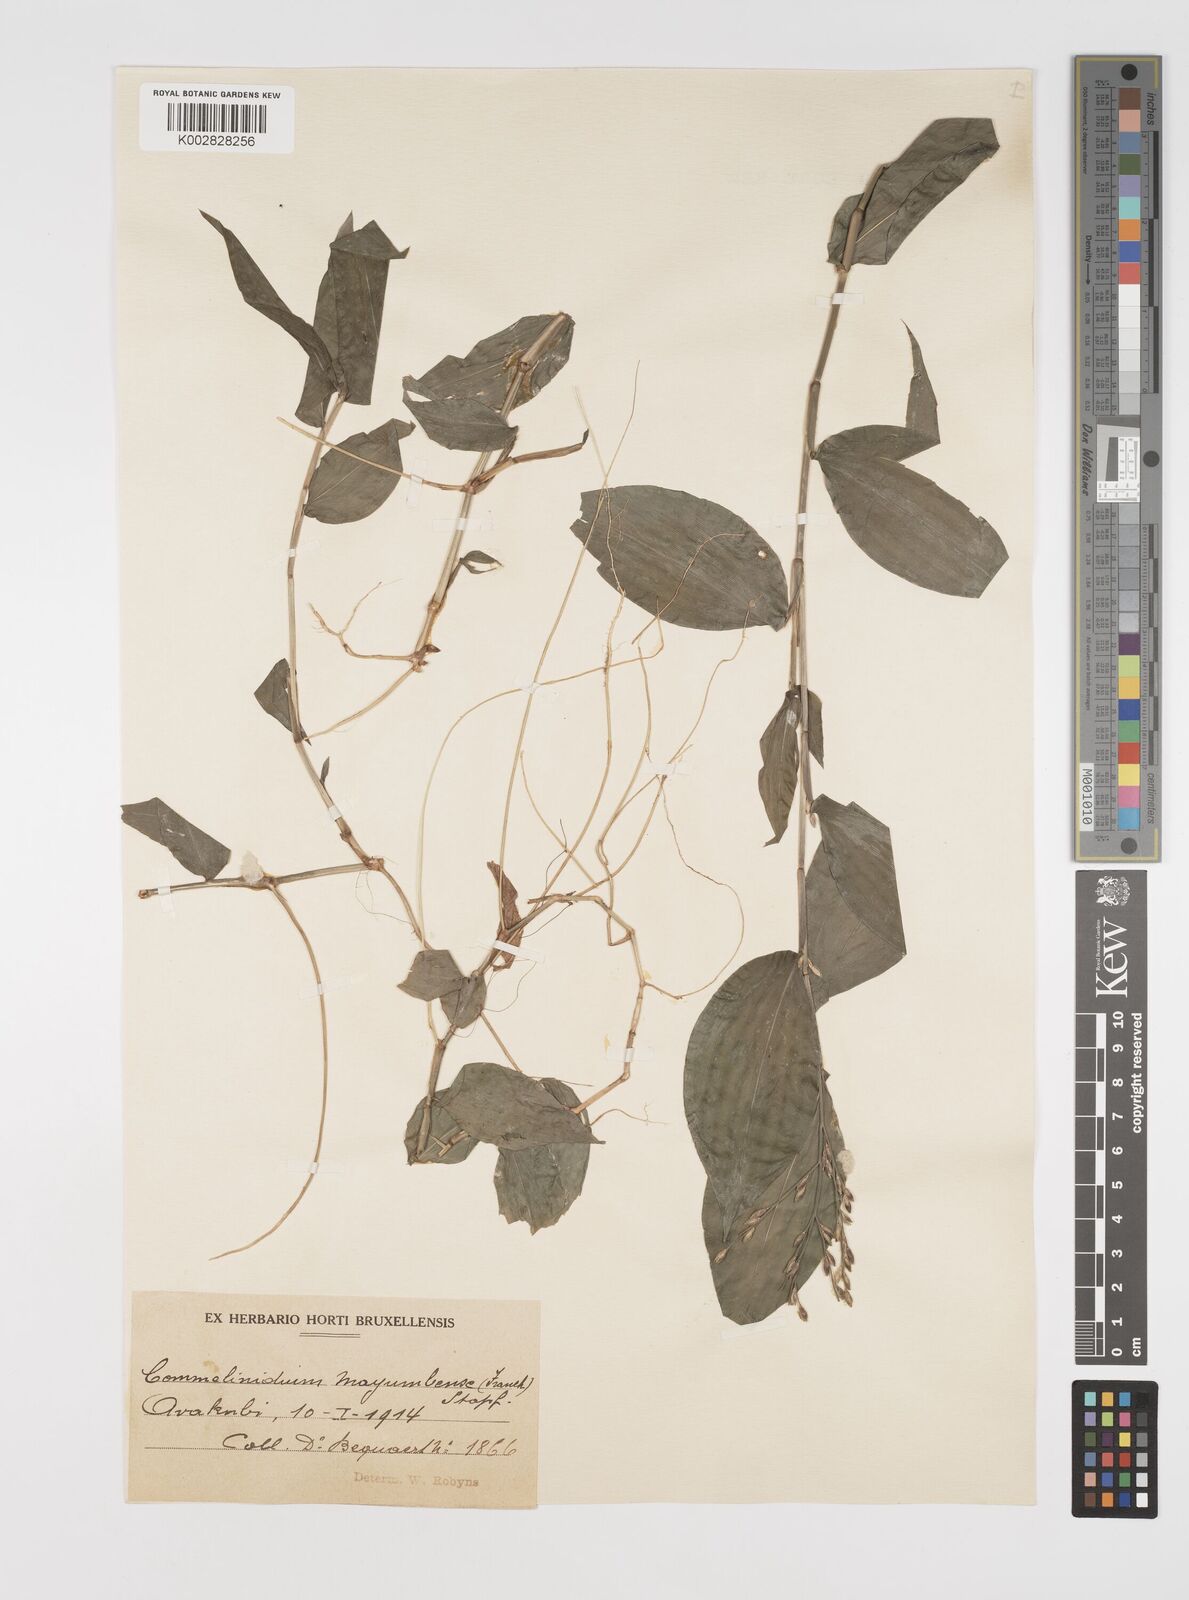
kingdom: Plantae
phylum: Tracheophyta
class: Liliopsida
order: Poales
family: Poaceae
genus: Acroceras
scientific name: Acroceras gabunense
